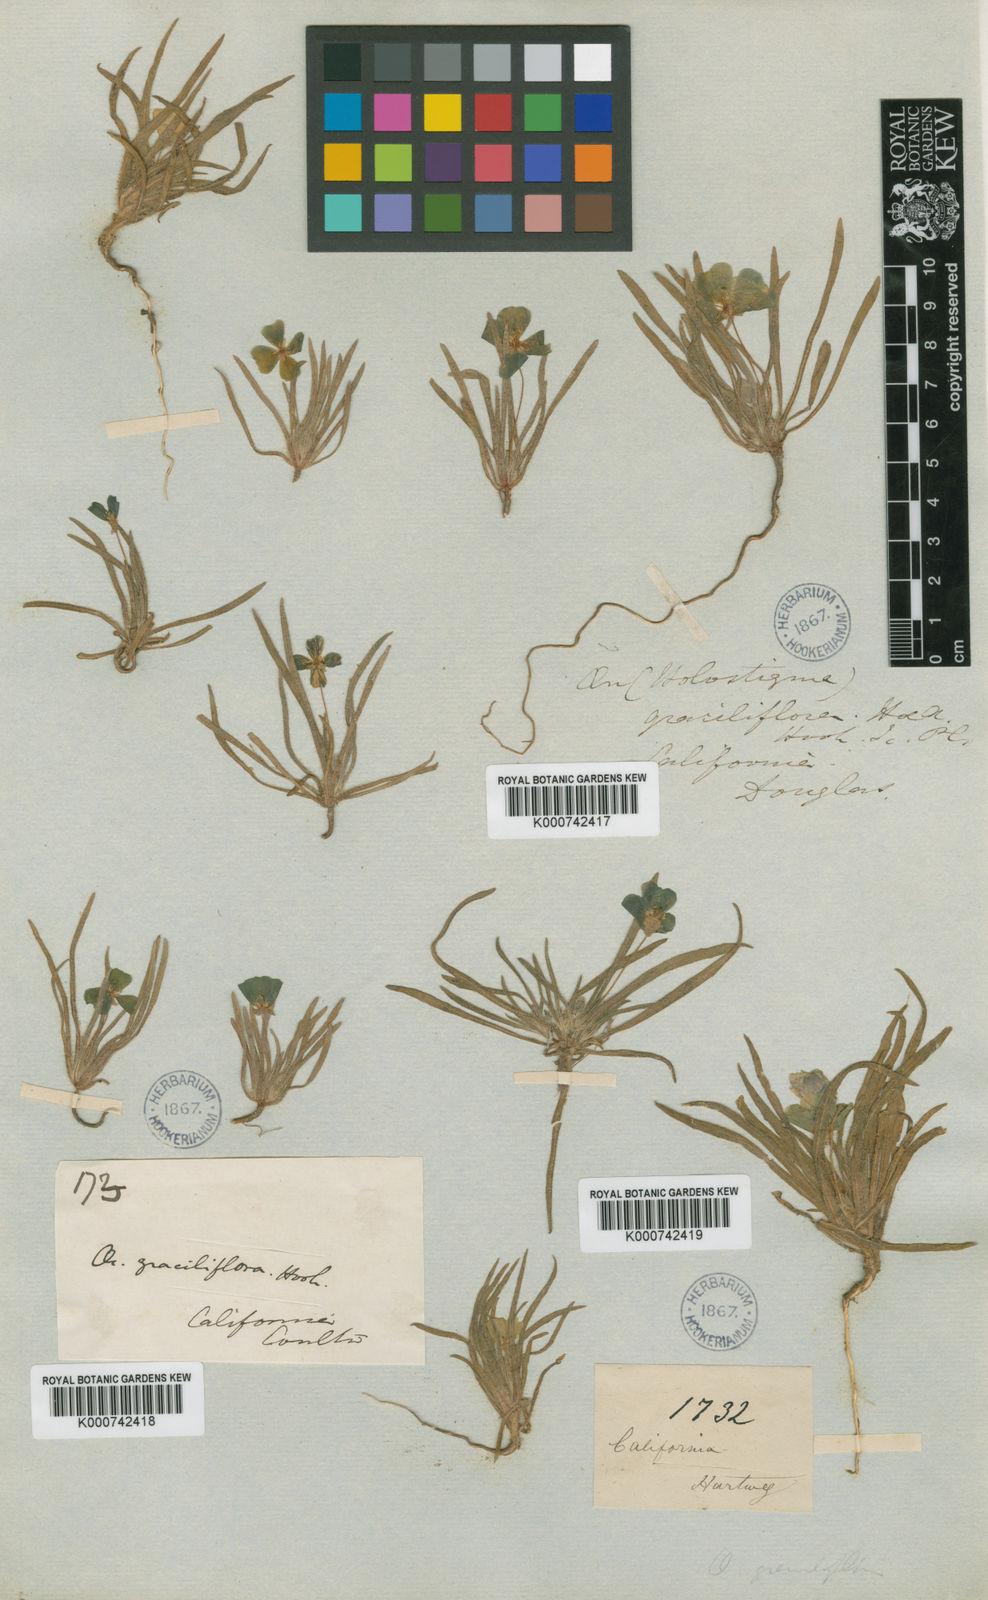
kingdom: Plantae
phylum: Tracheophyta
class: Magnoliopsida
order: Myrtales
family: Onagraceae
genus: Tetrapteron
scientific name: Tetrapteron graciliflorum
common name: Hill suncup
